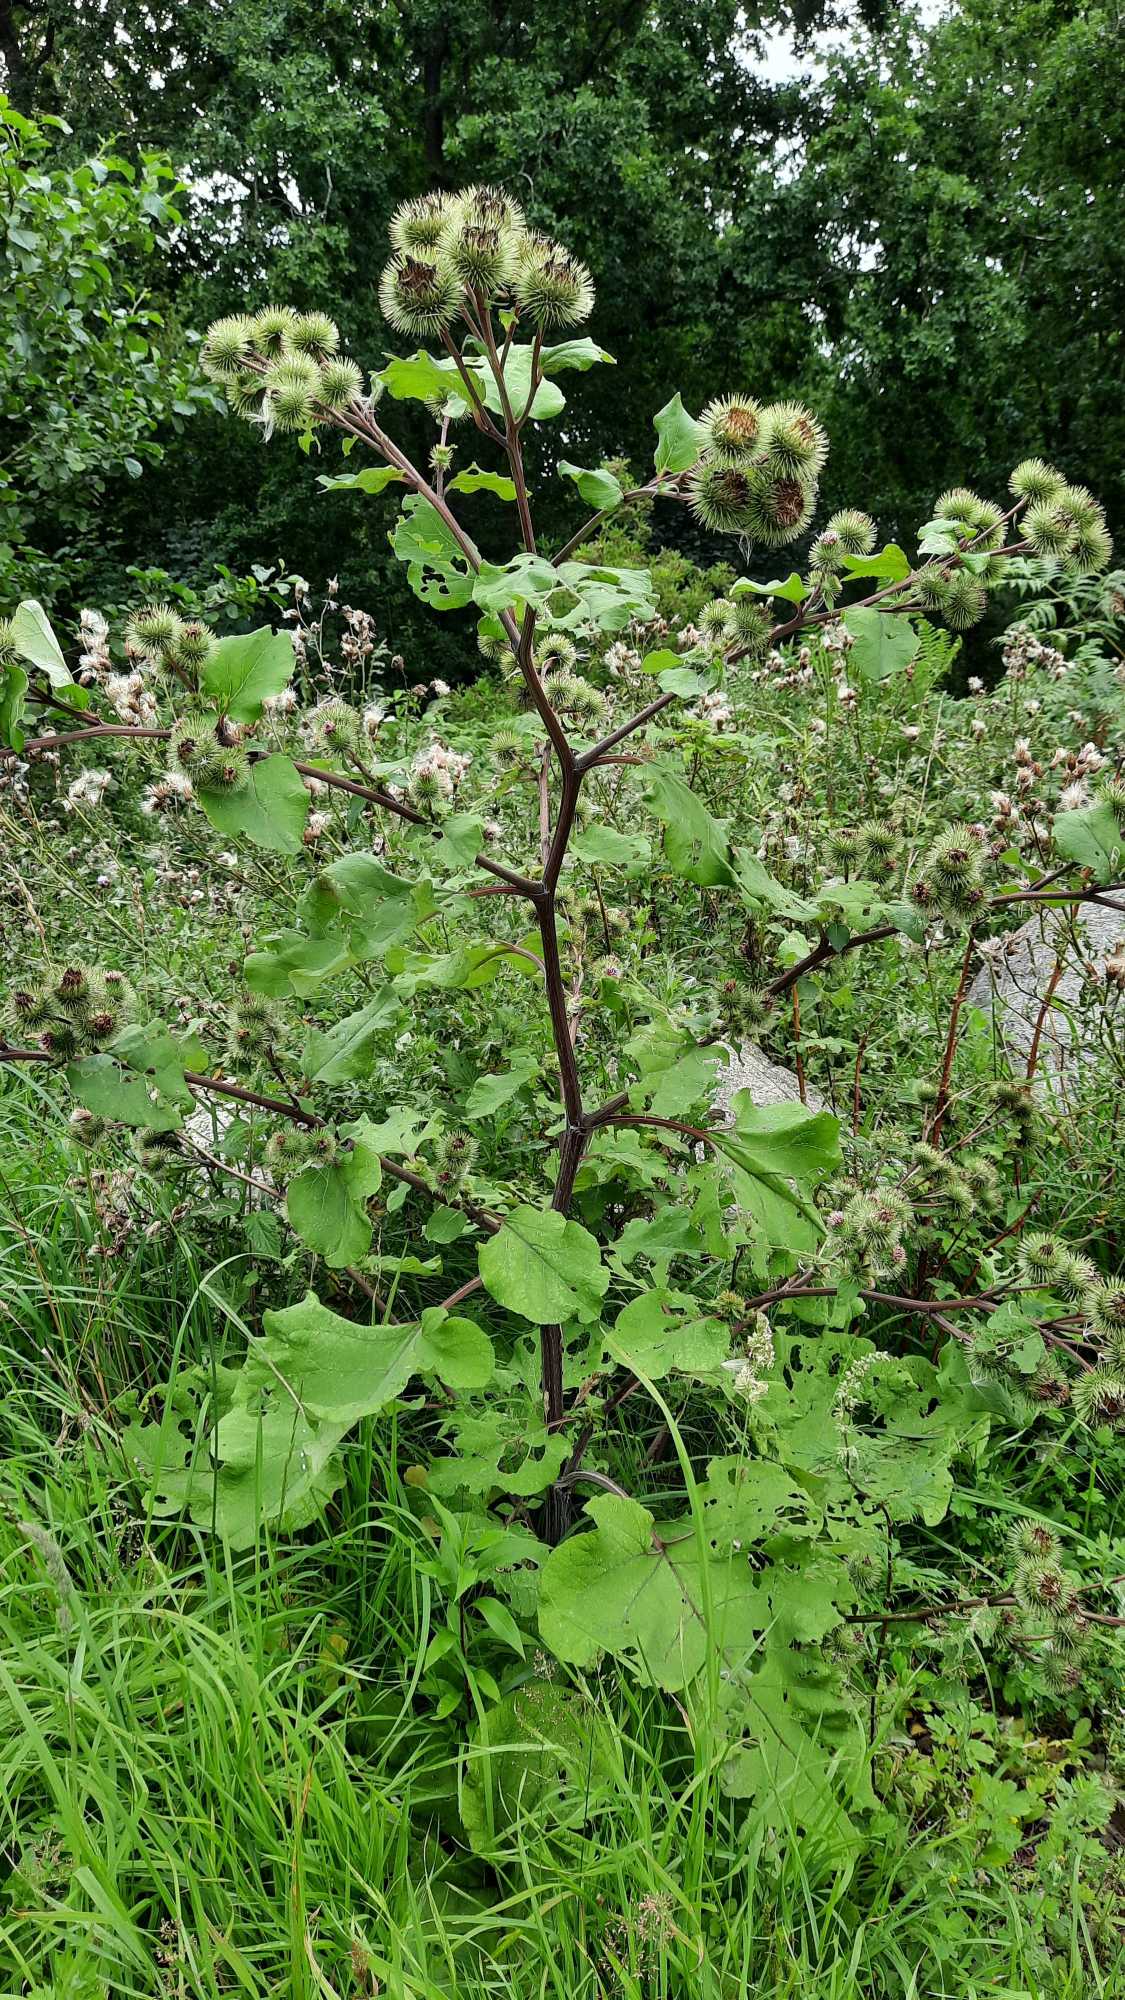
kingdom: Plantae
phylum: Tracheophyta
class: Magnoliopsida
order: Asterales
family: Asteraceae
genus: Arctium
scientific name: Arctium lappa
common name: Glat burre
